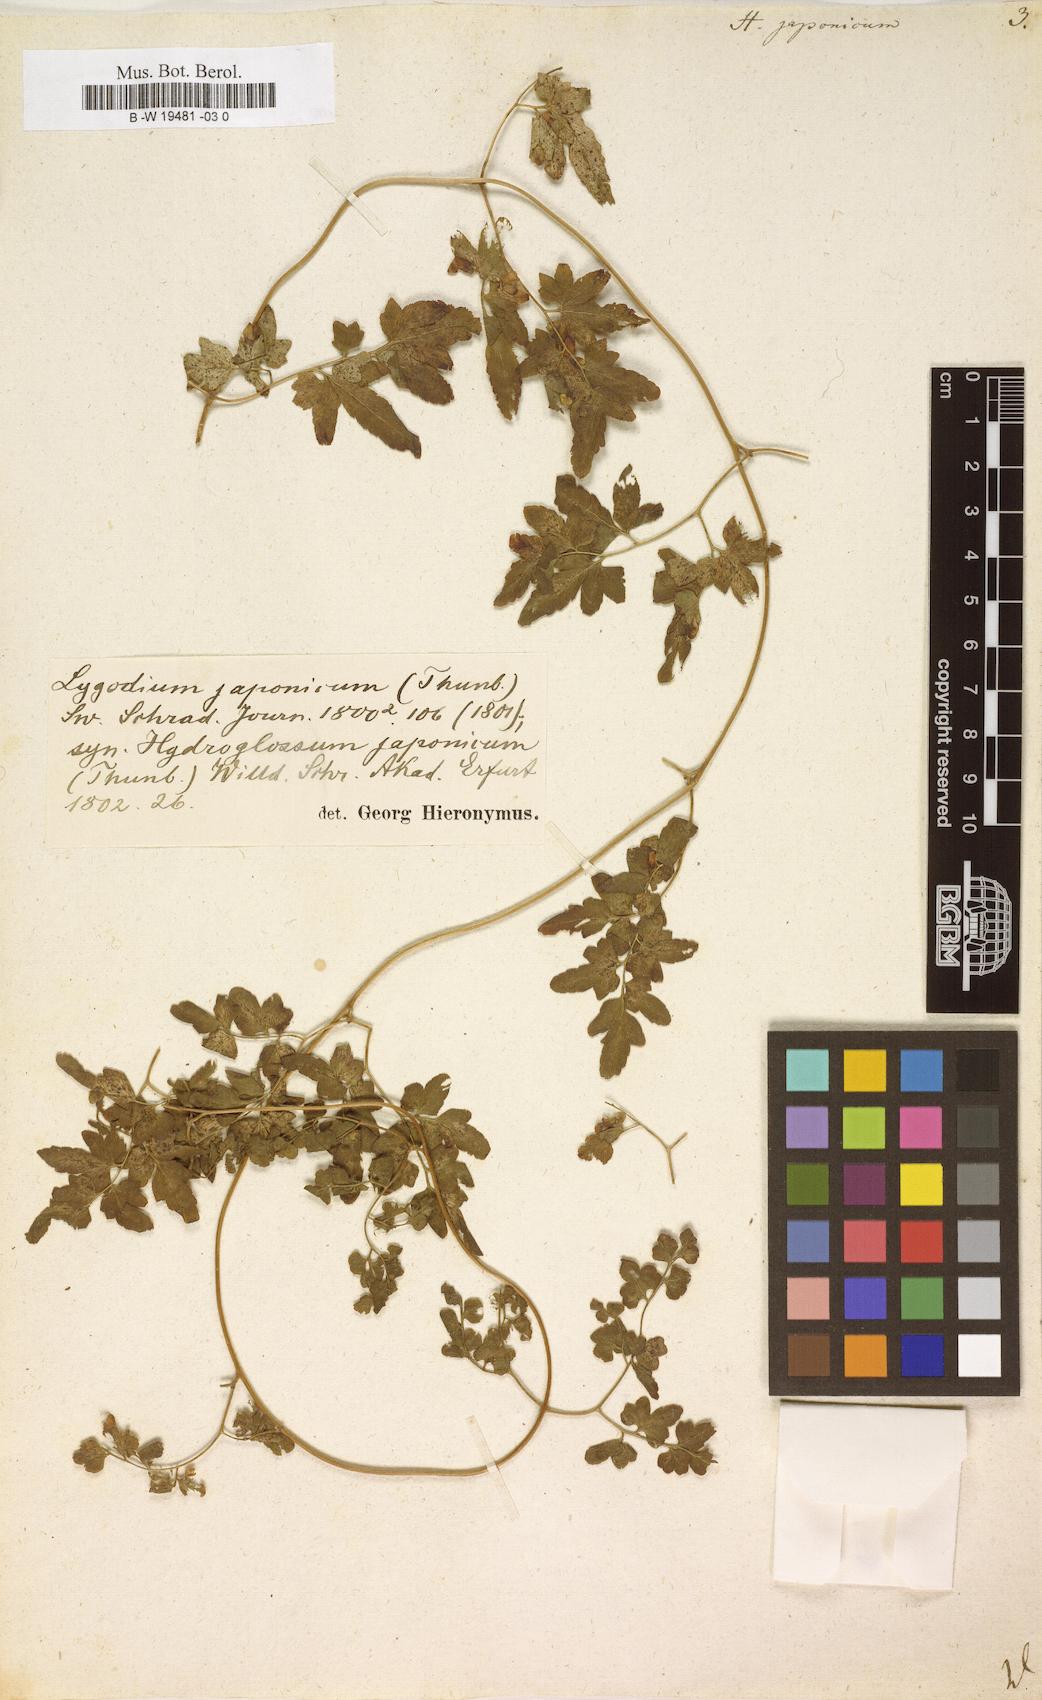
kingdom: Plantae
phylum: Tracheophyta
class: Polypodiopsida
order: Schizaeales
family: Lygodiaceae
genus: Lygodium
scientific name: Lygodium japonicum
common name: Japanese climbing fern
